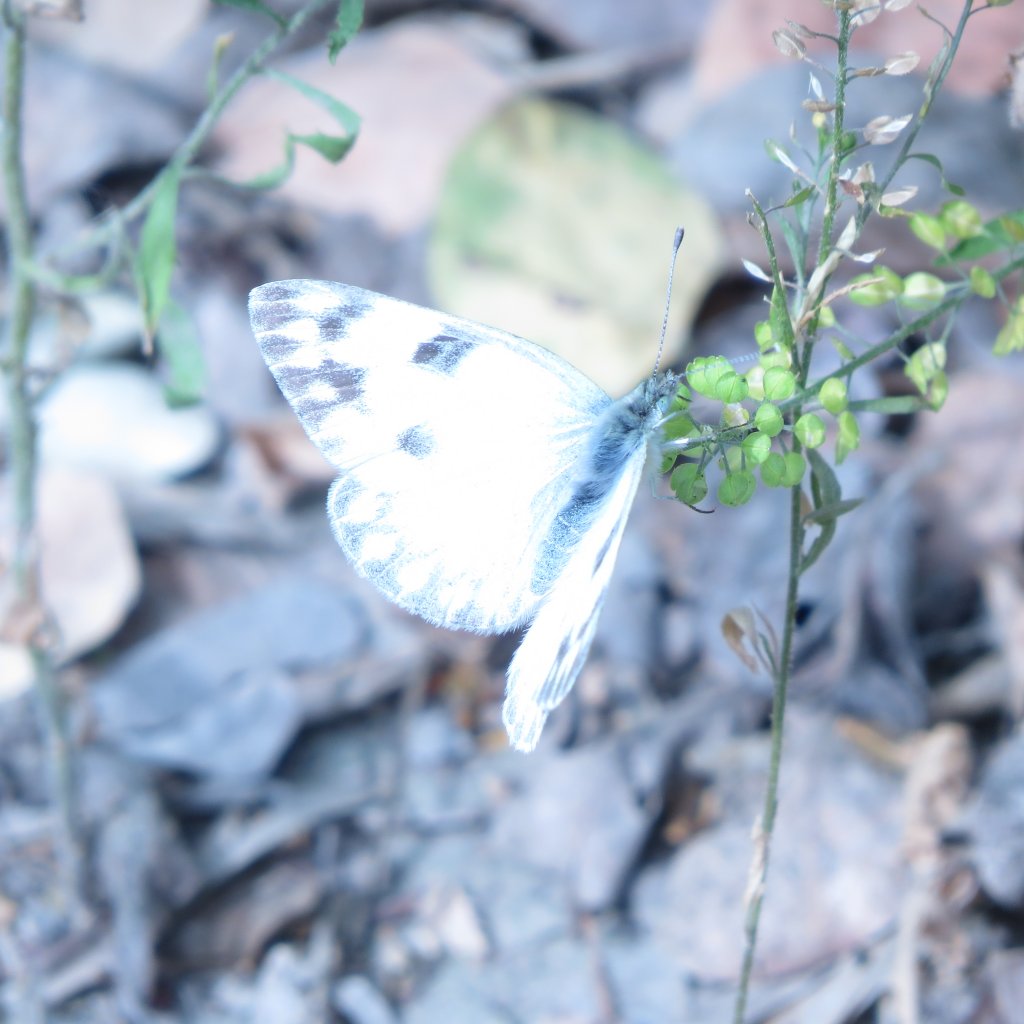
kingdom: Animalia
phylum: Arthropoda
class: Insecta
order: Lepidoptera
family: Pieridae
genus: Pontia
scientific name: Pontia protodice
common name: Checkered White
